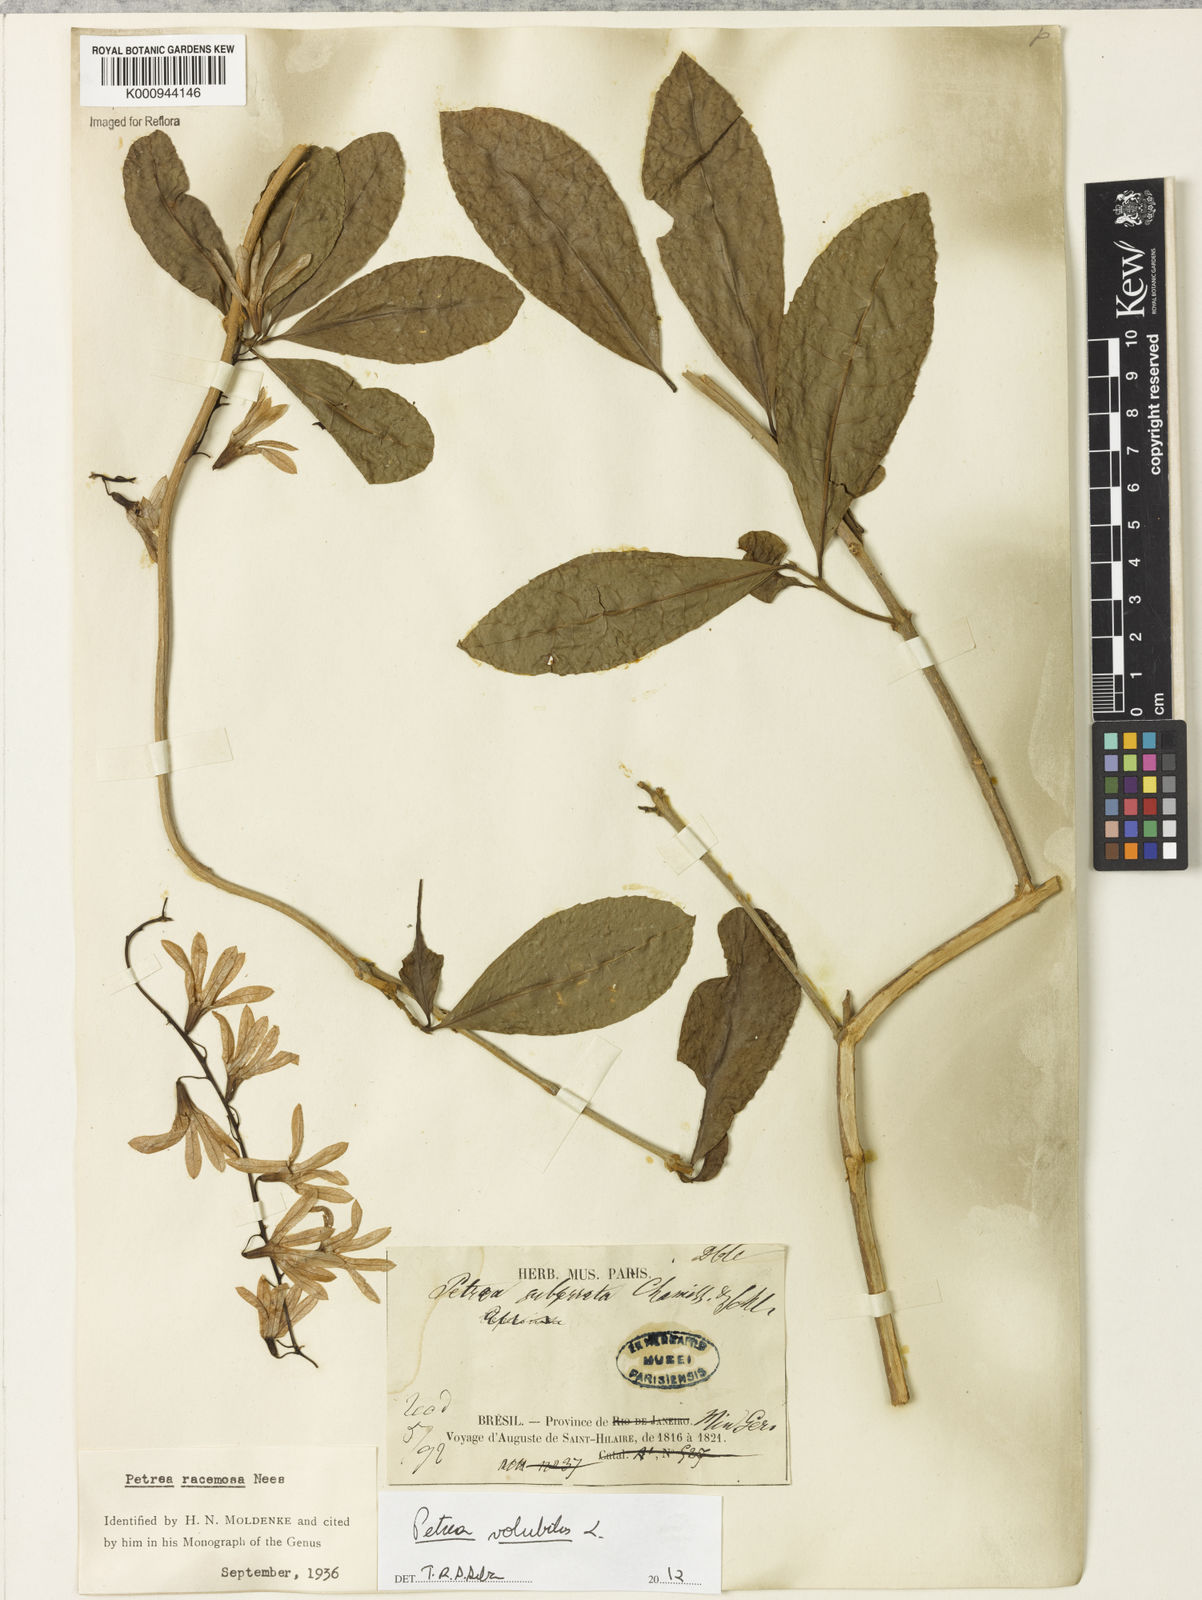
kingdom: Plantae
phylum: Tracheophyta
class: Magnoliopsida
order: Lamiales
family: Verbenaceae
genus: Petrea
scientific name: Petrea
